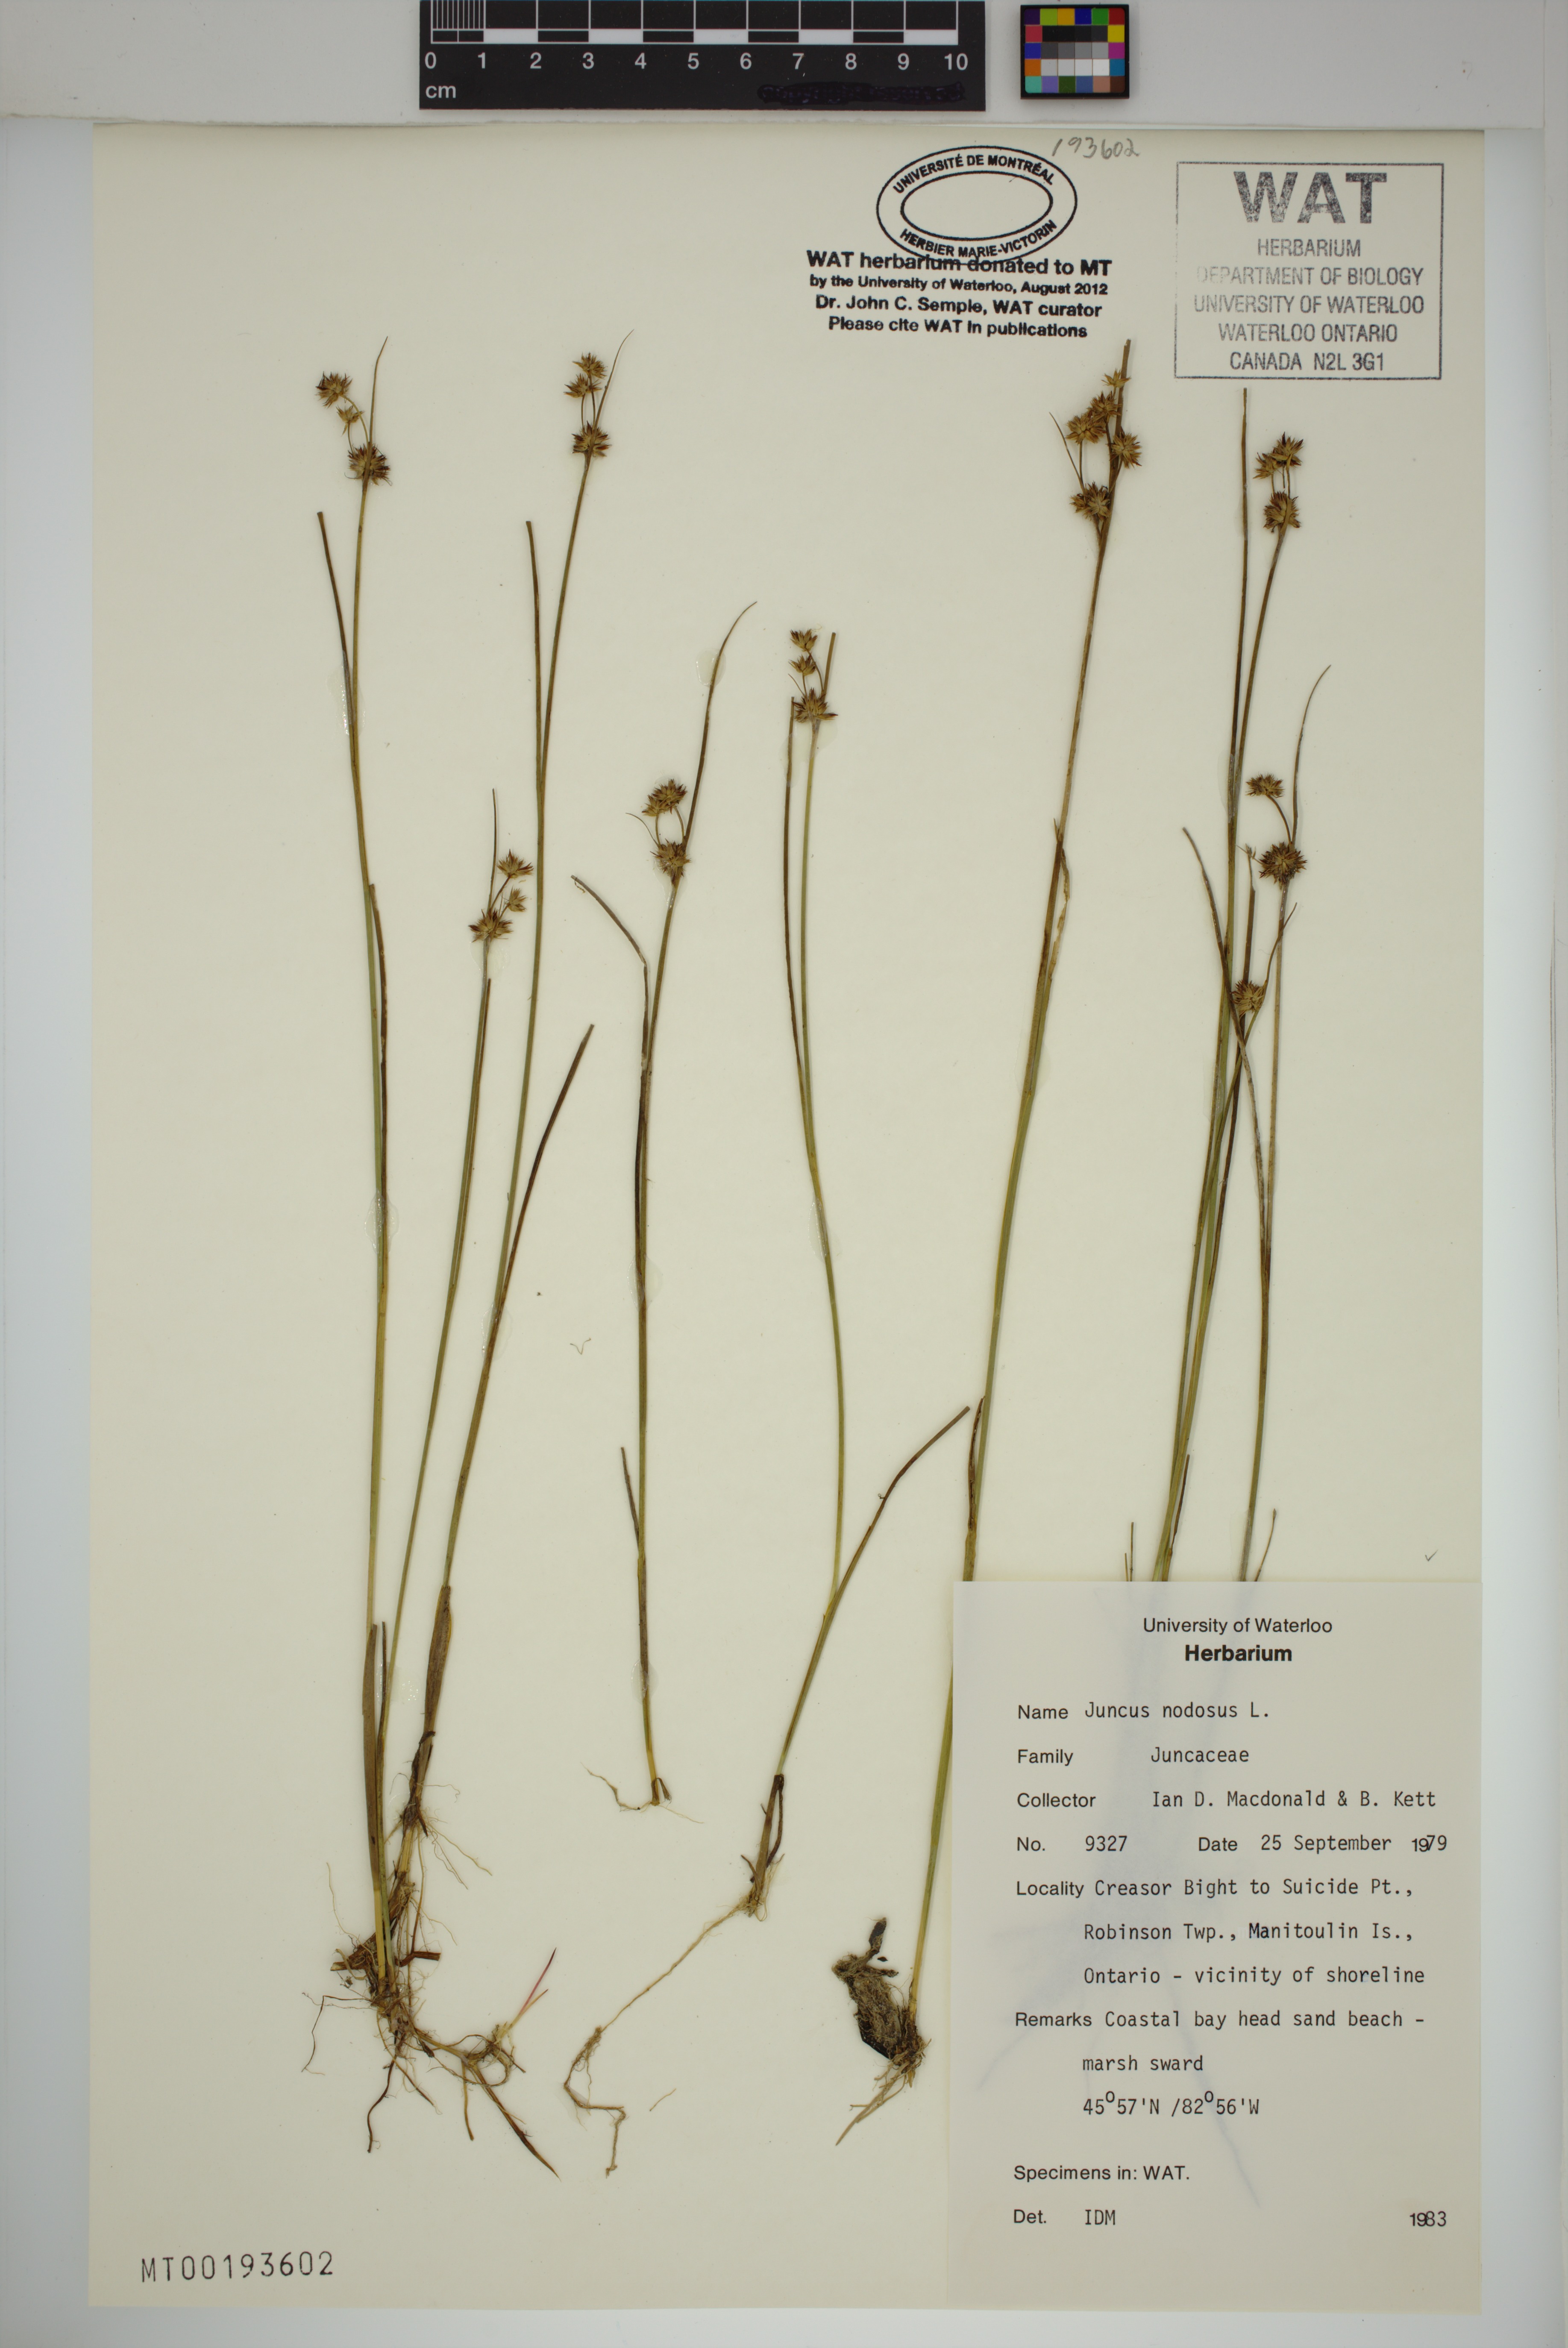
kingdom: Plantae
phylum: Tracheophyta
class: Liliopsida
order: Poales
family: Juncaceae
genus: Juncus
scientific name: Juncus nodosus
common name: Knotted rush
